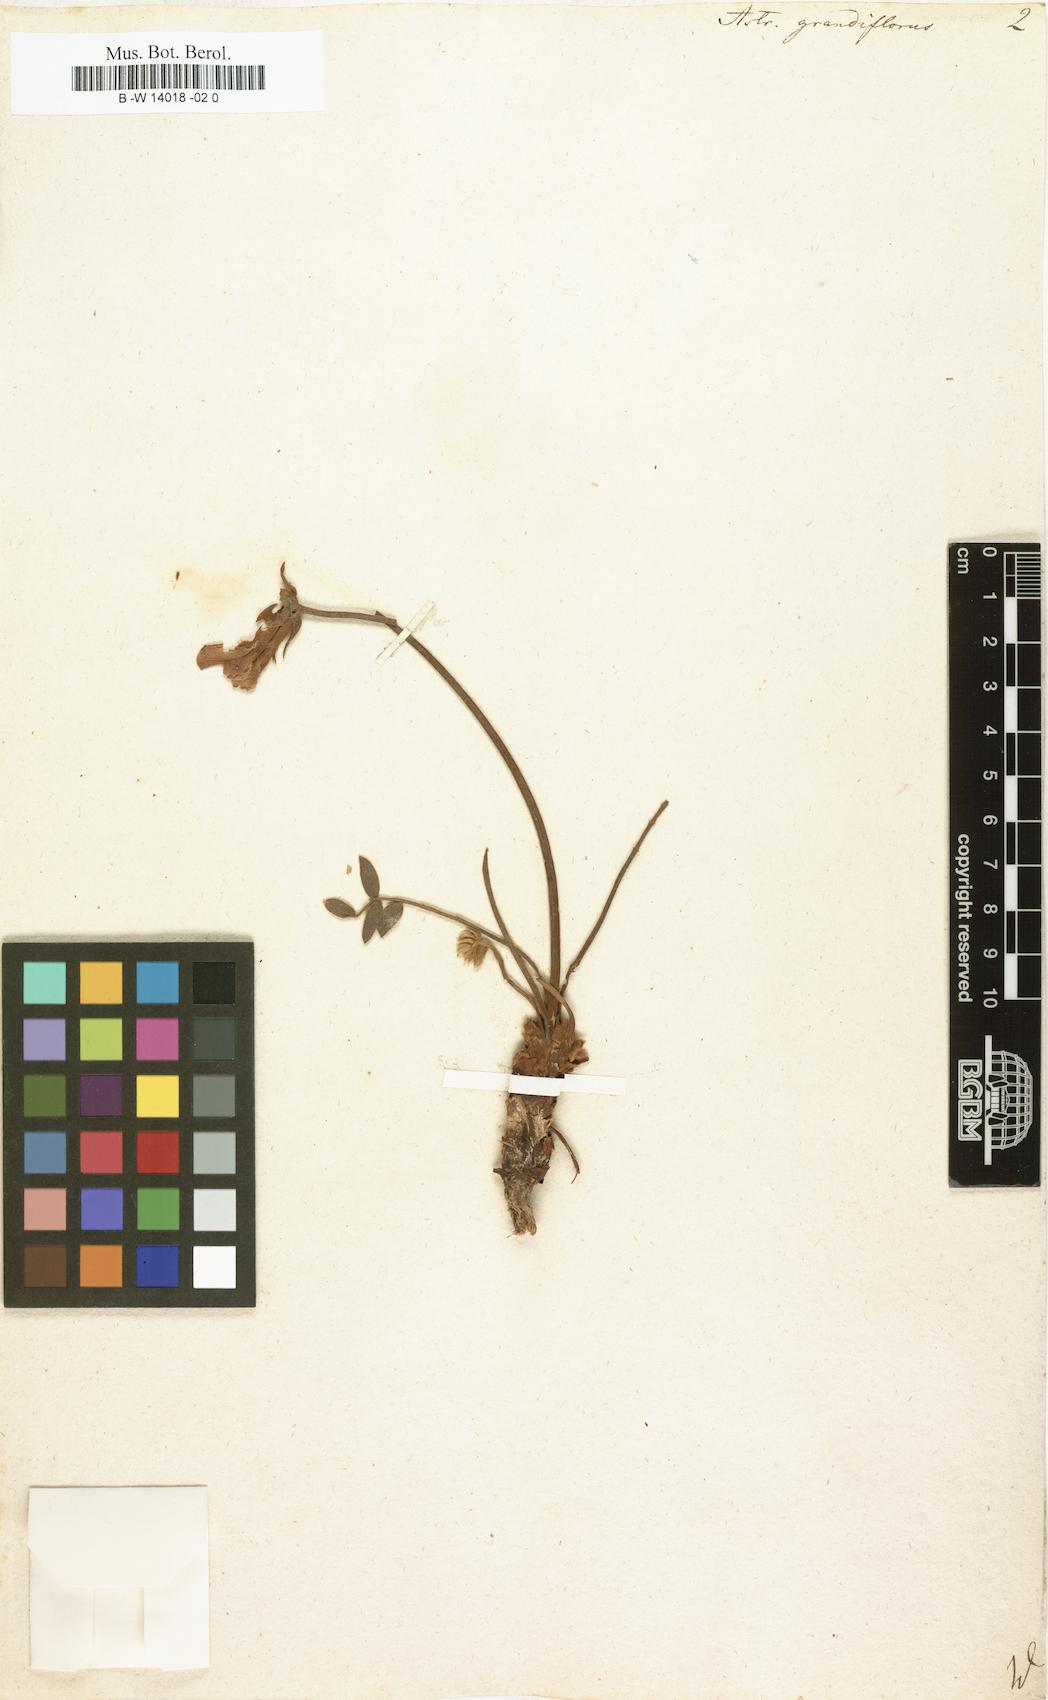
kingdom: Plantae
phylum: Tracheophyta
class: Magnoliopsida
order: Fabales
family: Fabaceae
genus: Astragalus
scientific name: Astragalus macrocephalus
